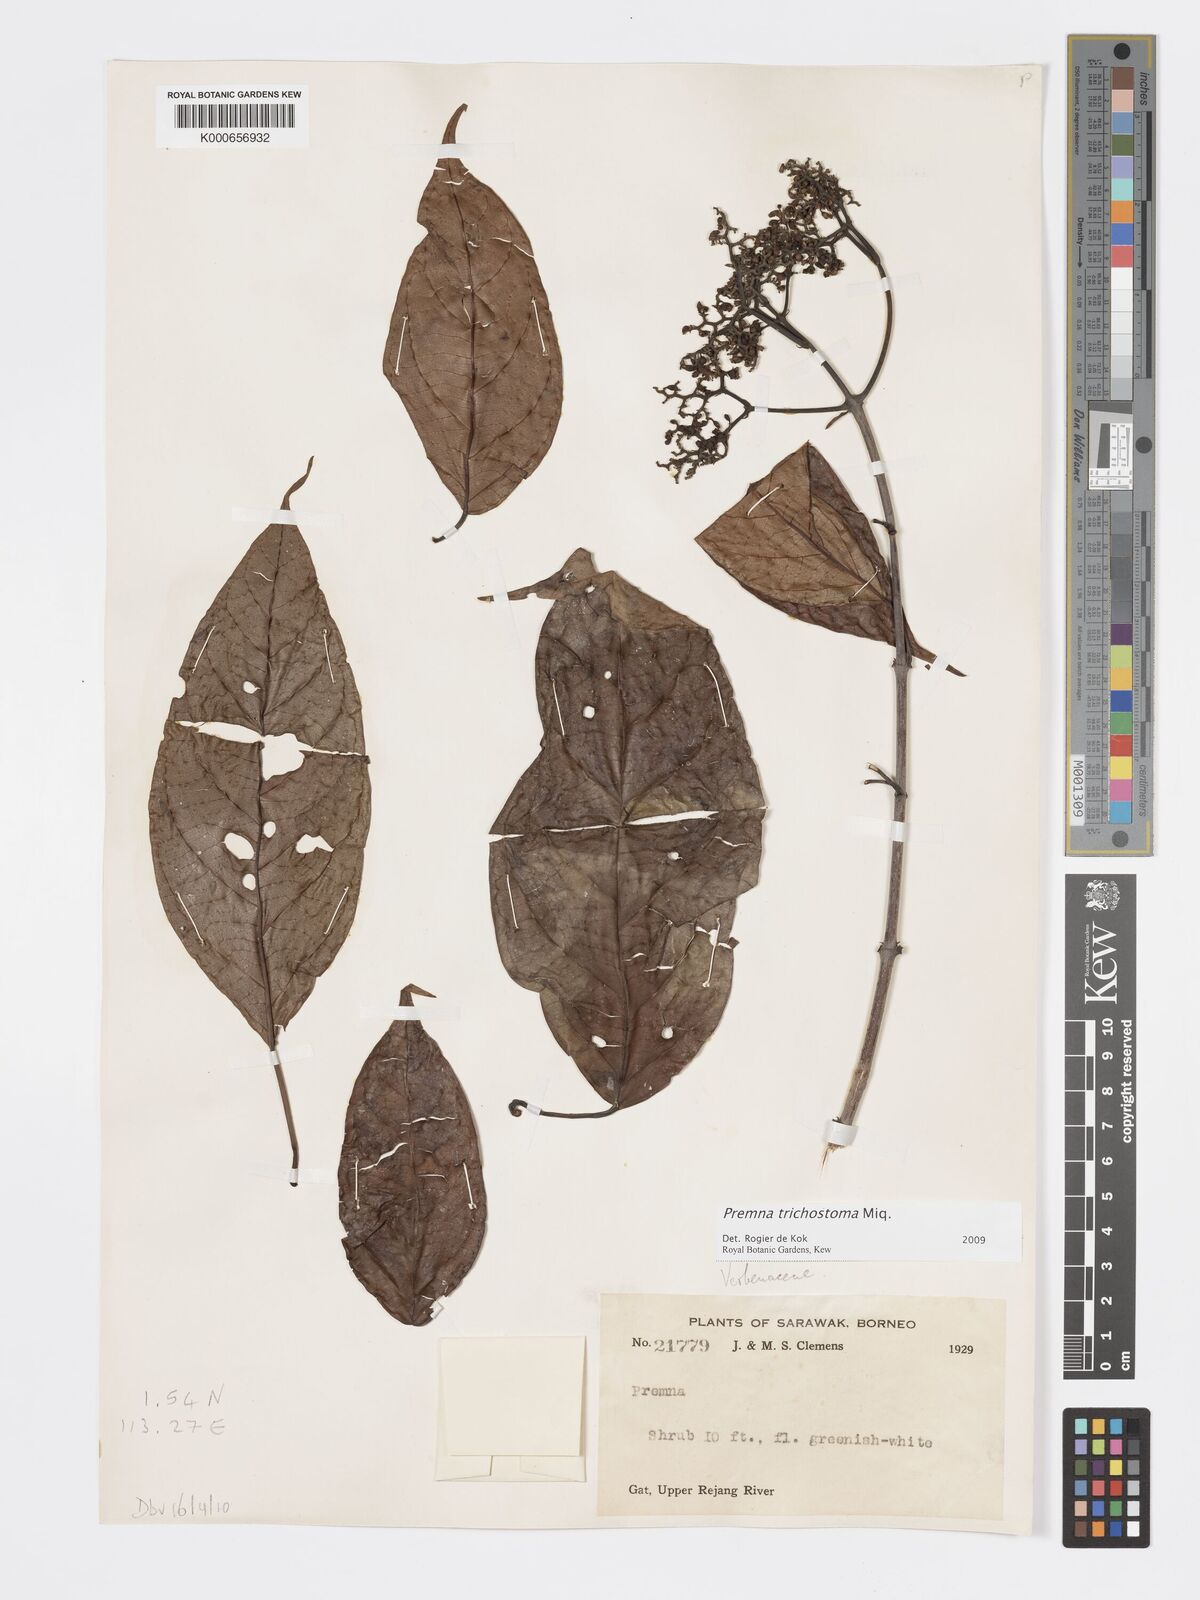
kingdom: Plantae
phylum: Tracheophyta
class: Magnoliopsida
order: Lamiales
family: Lamiaceae
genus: Premna
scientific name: Premna trichostoma
